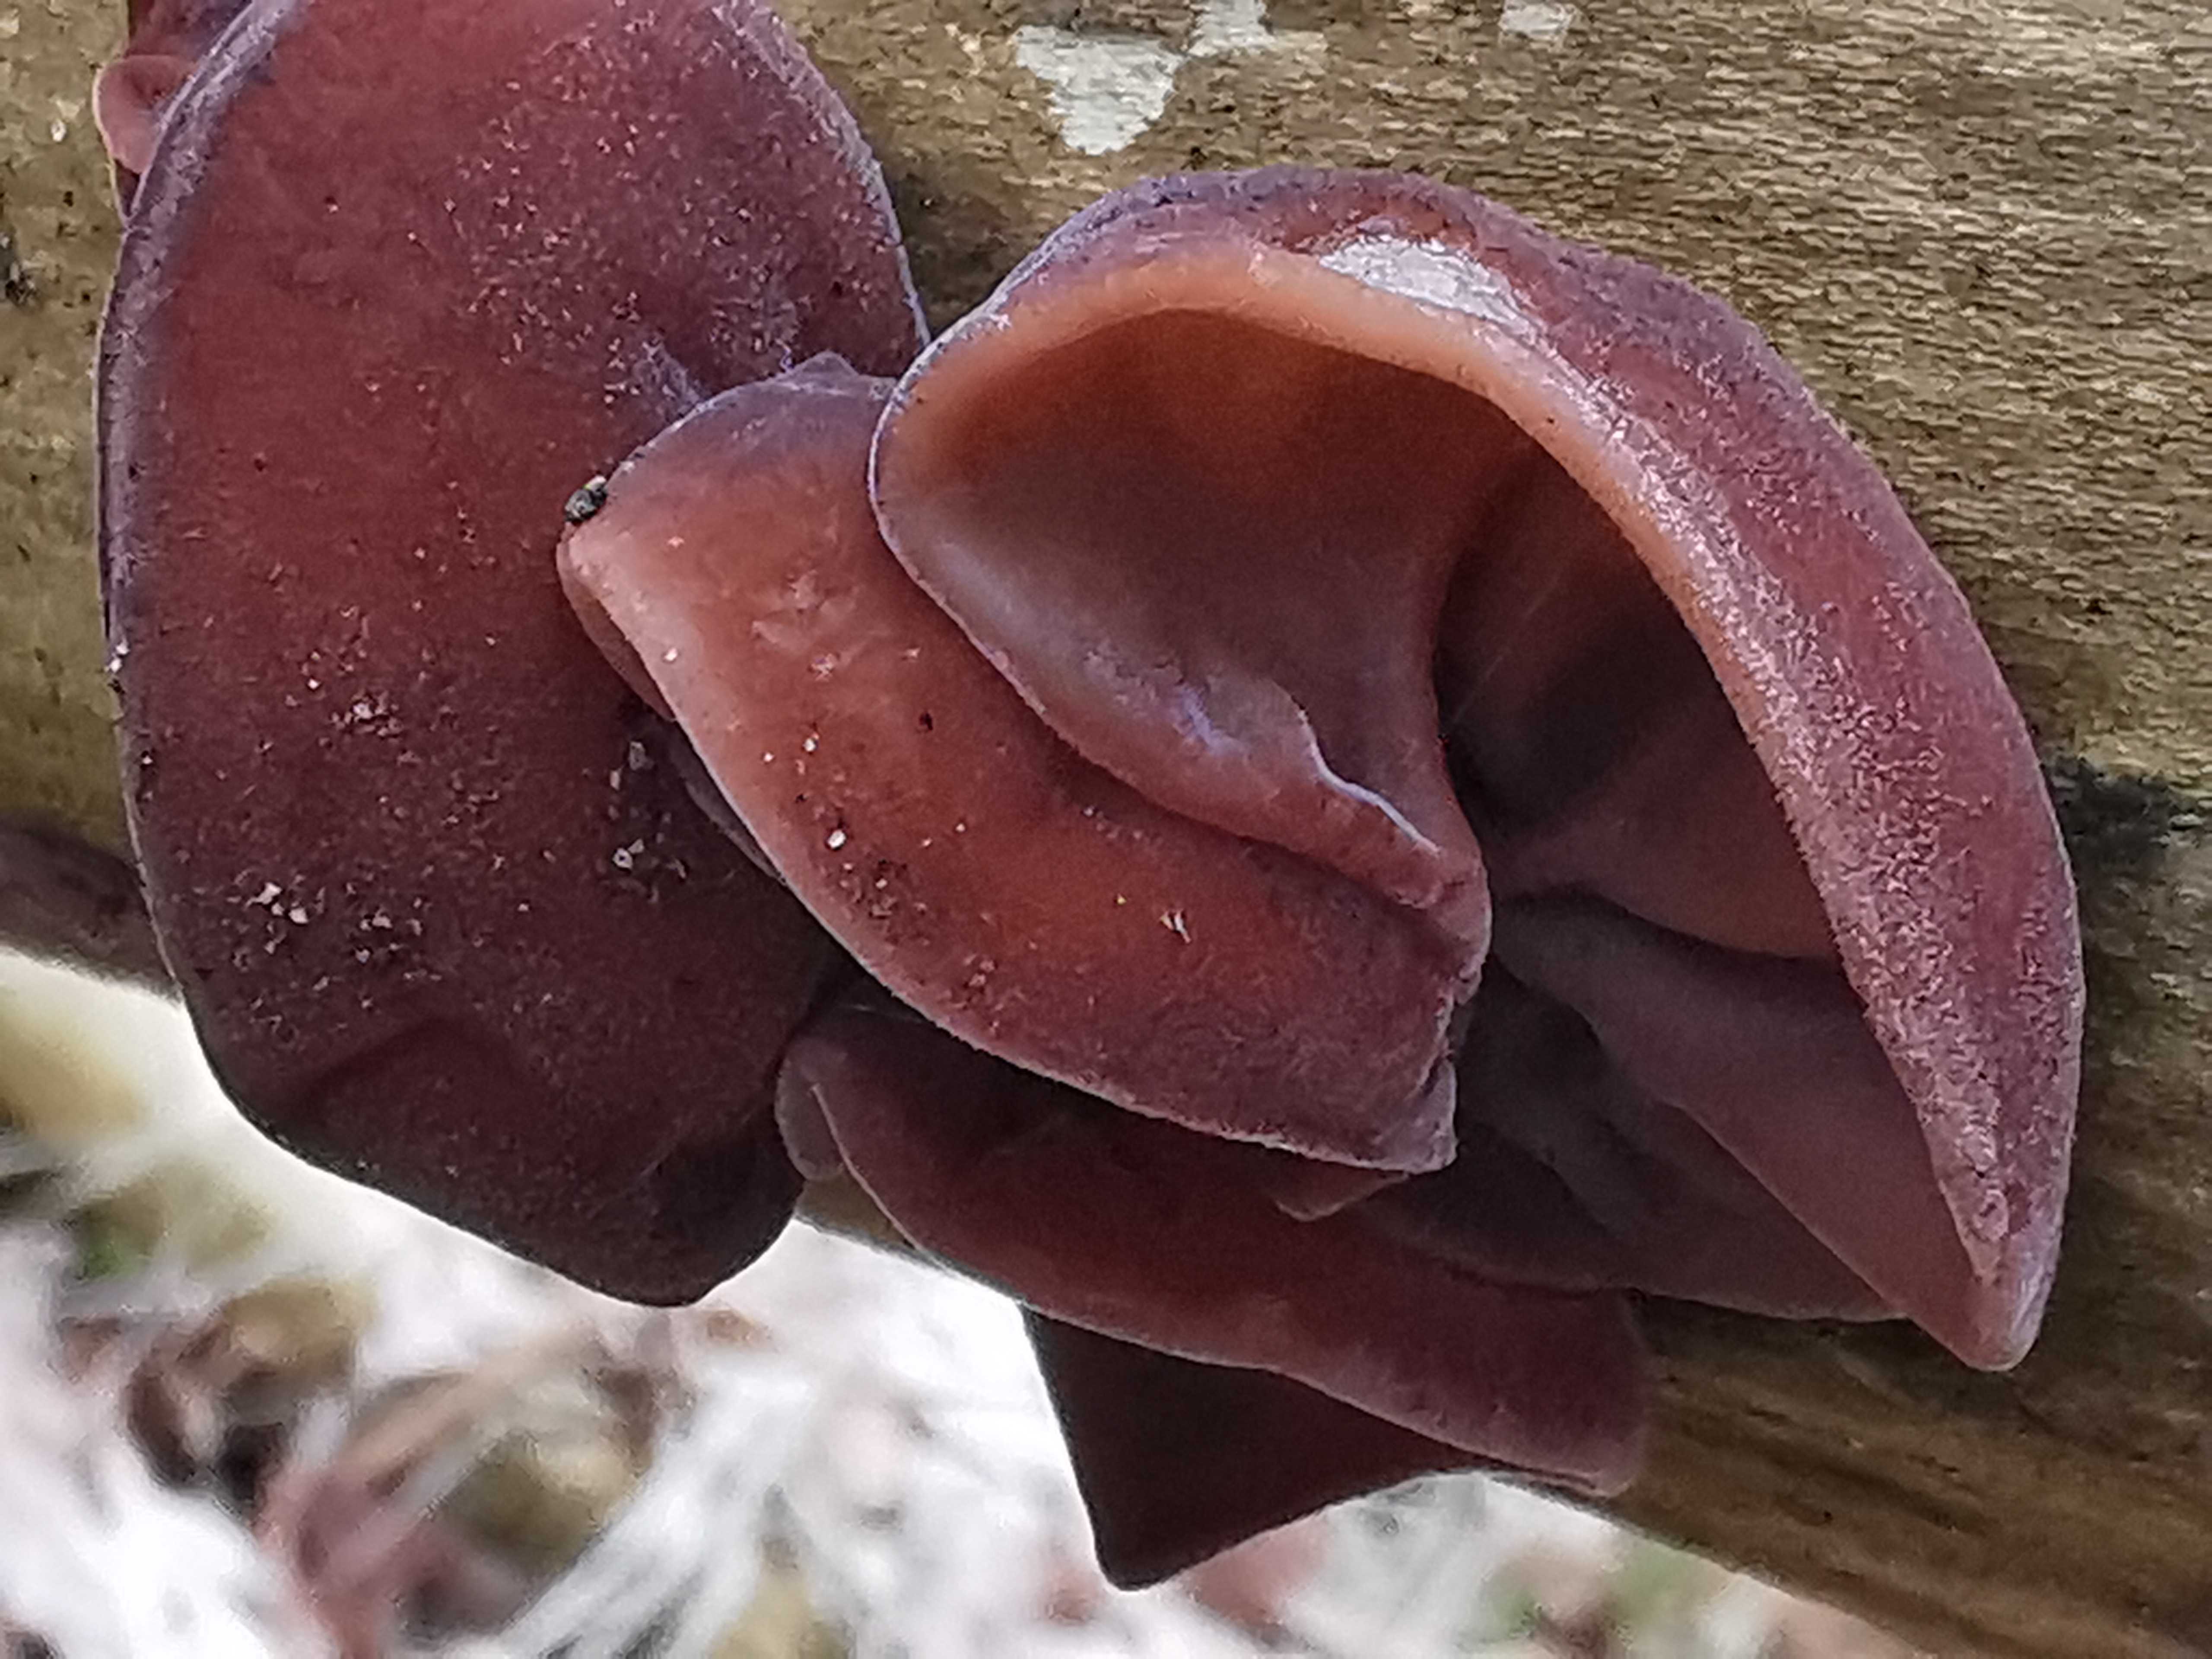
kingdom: Fungi
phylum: Basidiomycota
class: Agaricomycetes
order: Auriculariales
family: Auriculariaceae
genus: Auricularia
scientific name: Auricularia auricula-judae
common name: almindelig judasøre
